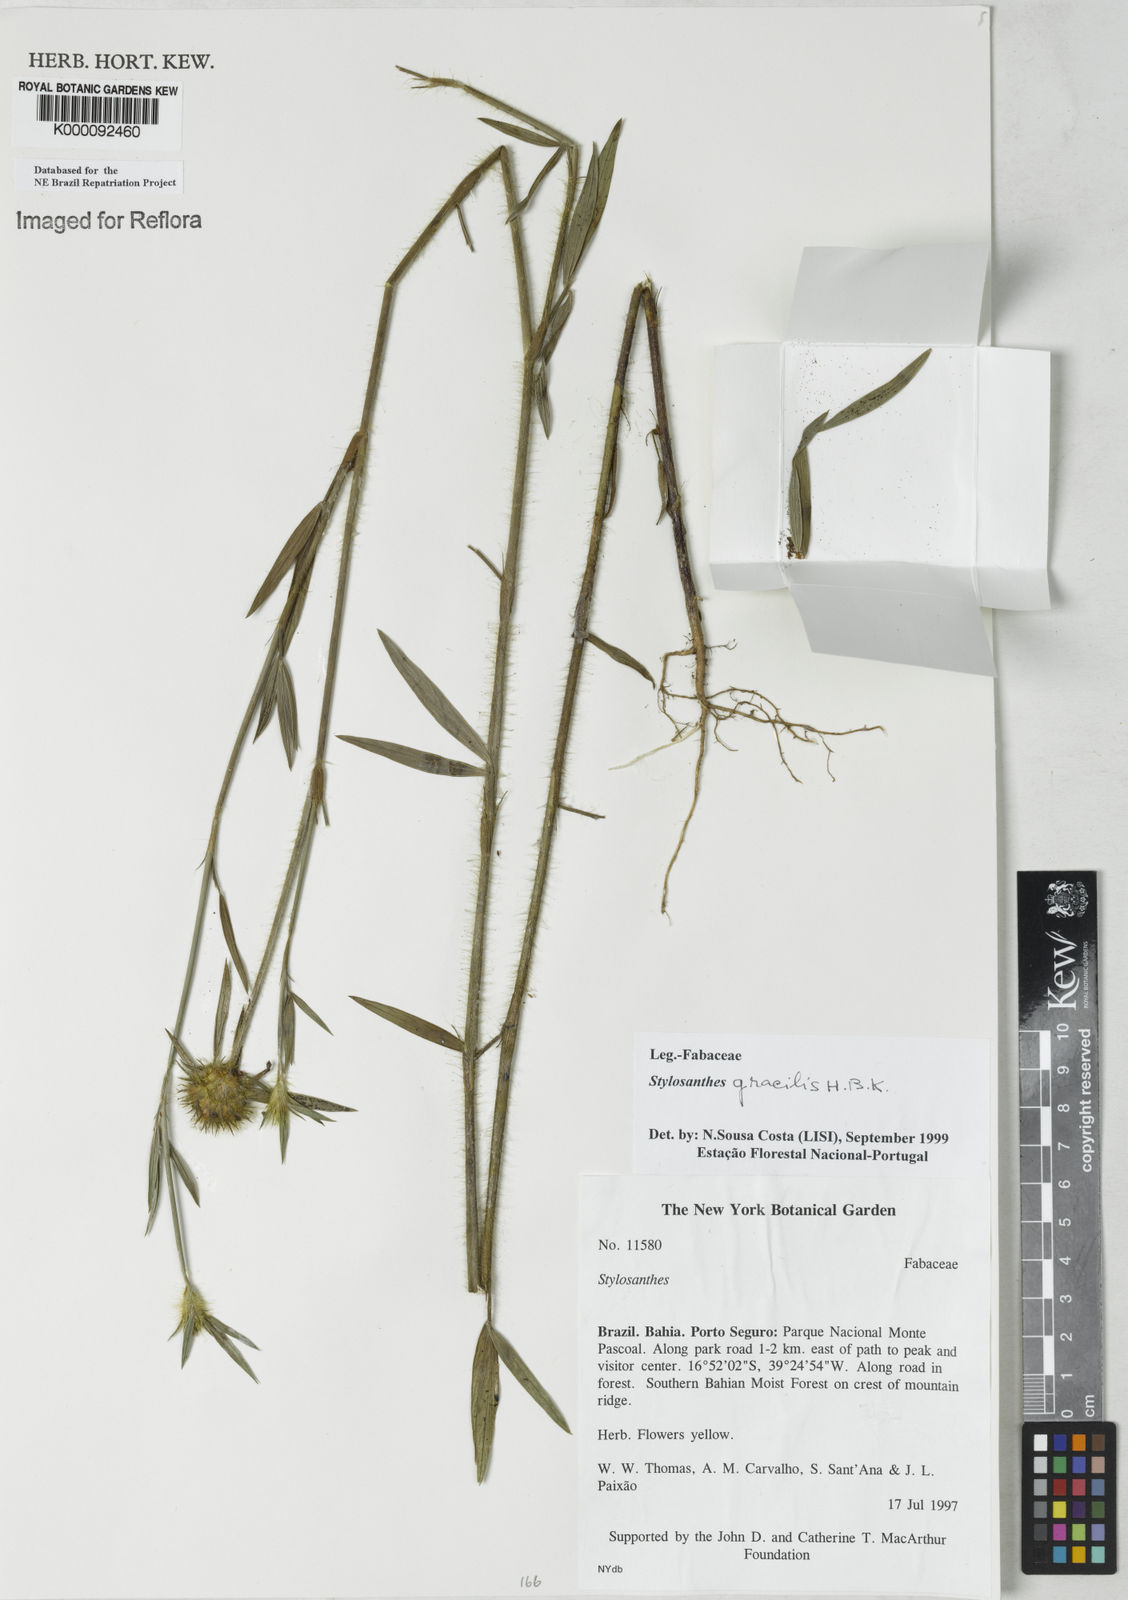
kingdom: Plantae
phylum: Tracheophyta
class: Magnoliopsida
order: Fabales
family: Fabaceae
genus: Stylosanthes
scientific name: Stylosanthes guianensis
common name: Pencil flower
